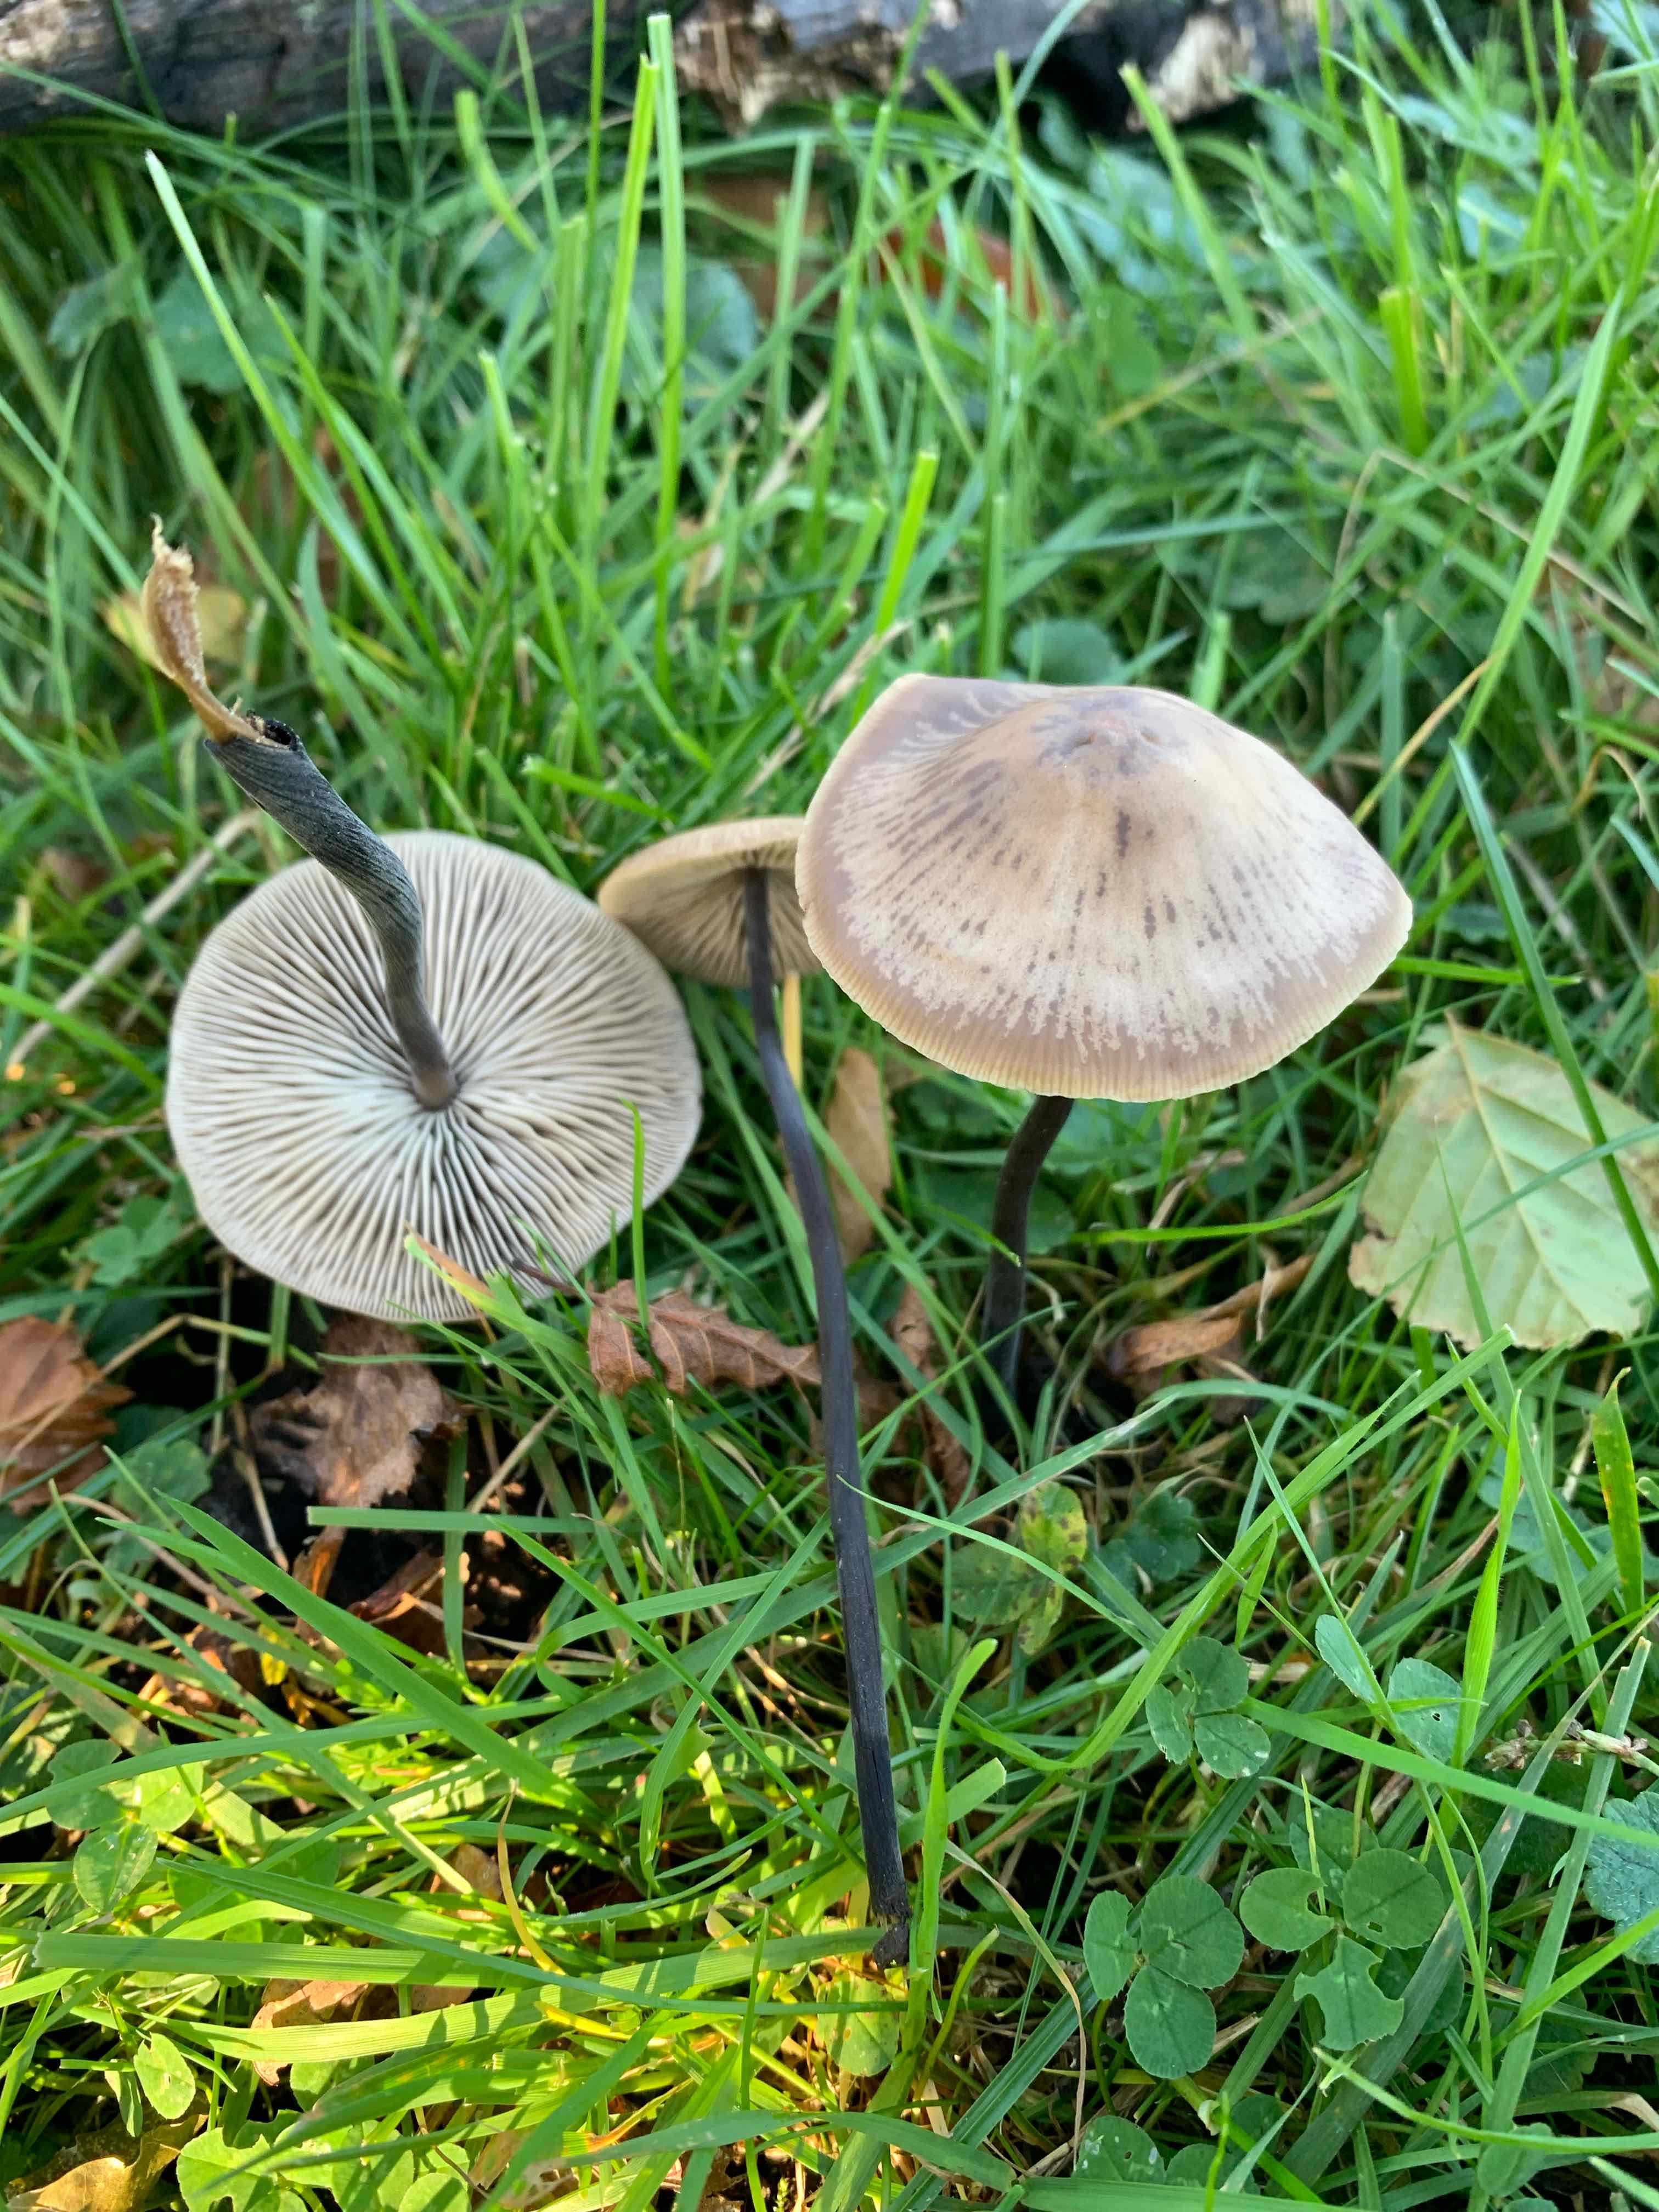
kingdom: Fungi
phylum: Basidiomycota
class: Agaricomycetes
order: Agaricales
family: Omphalotaceae
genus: Mycetinis
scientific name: Mycetinis alliaceus
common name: stor løghat
